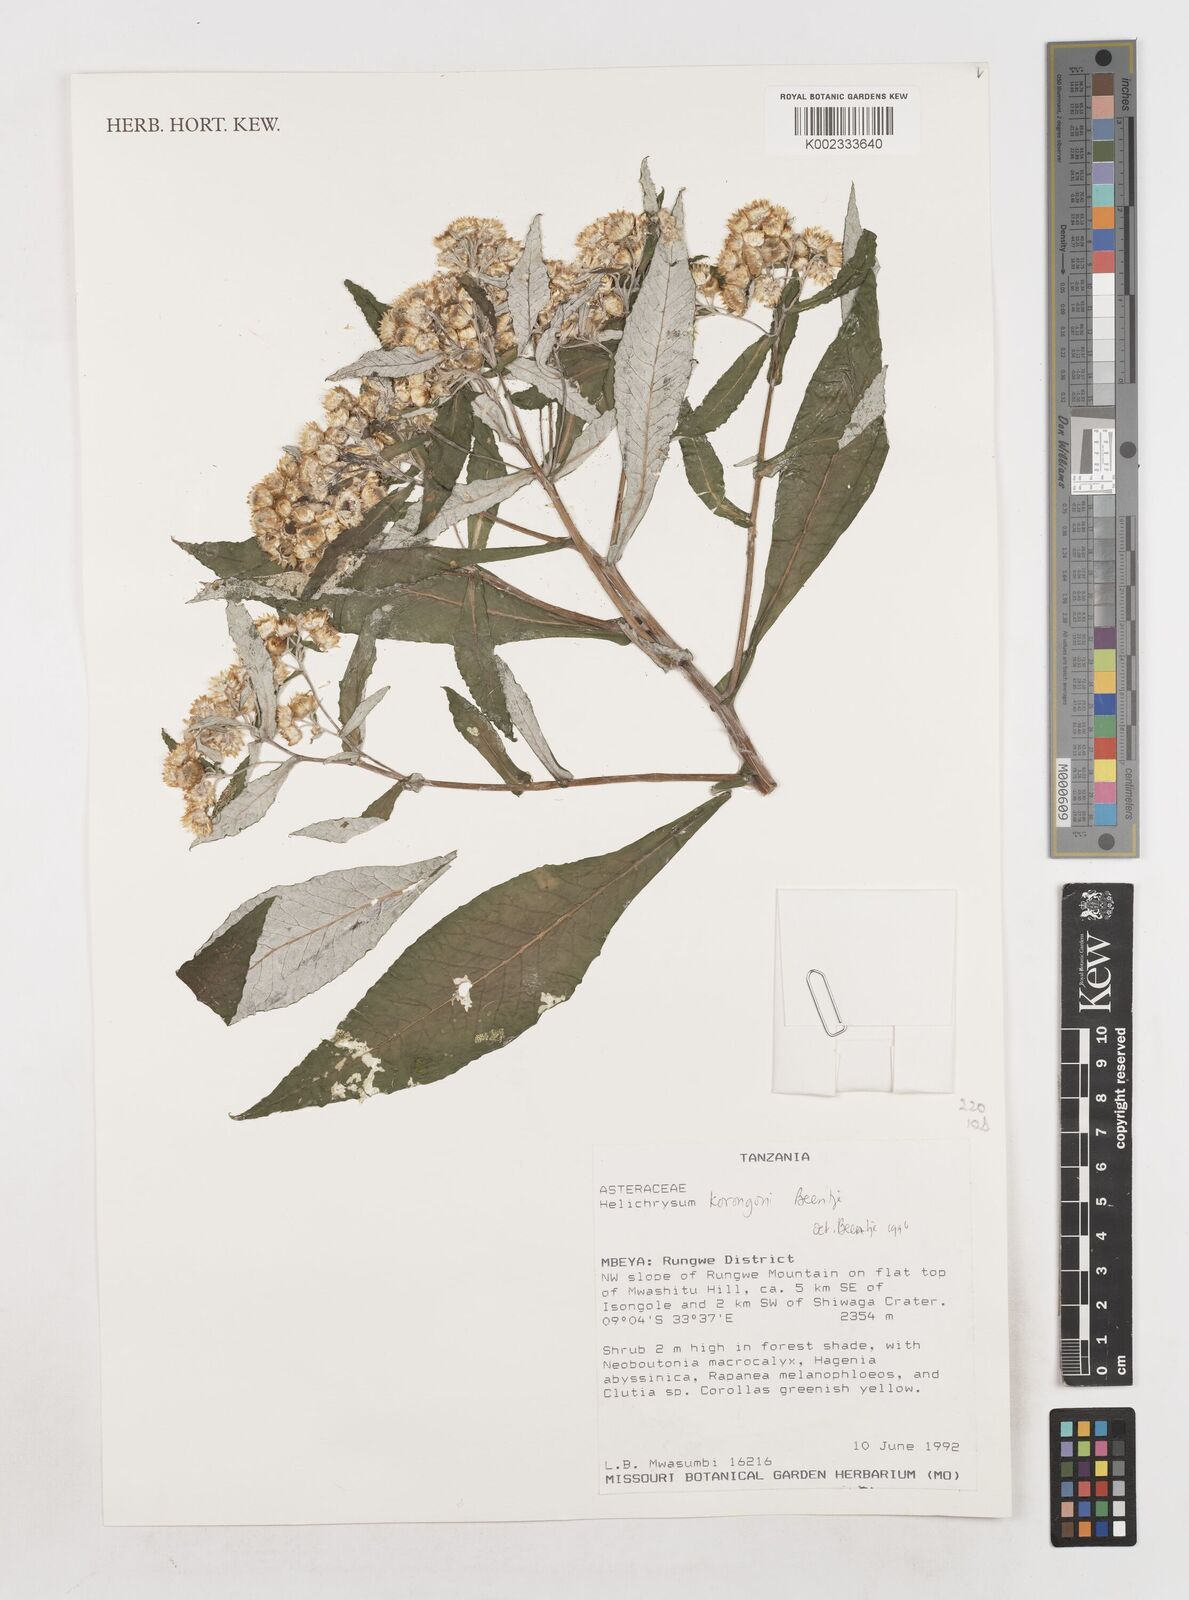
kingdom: Plantae
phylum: Tracheophyta
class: Magnoliopsida
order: Asterales
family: Asteraceae
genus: Helichrysum
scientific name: Helichrysum korongoni
